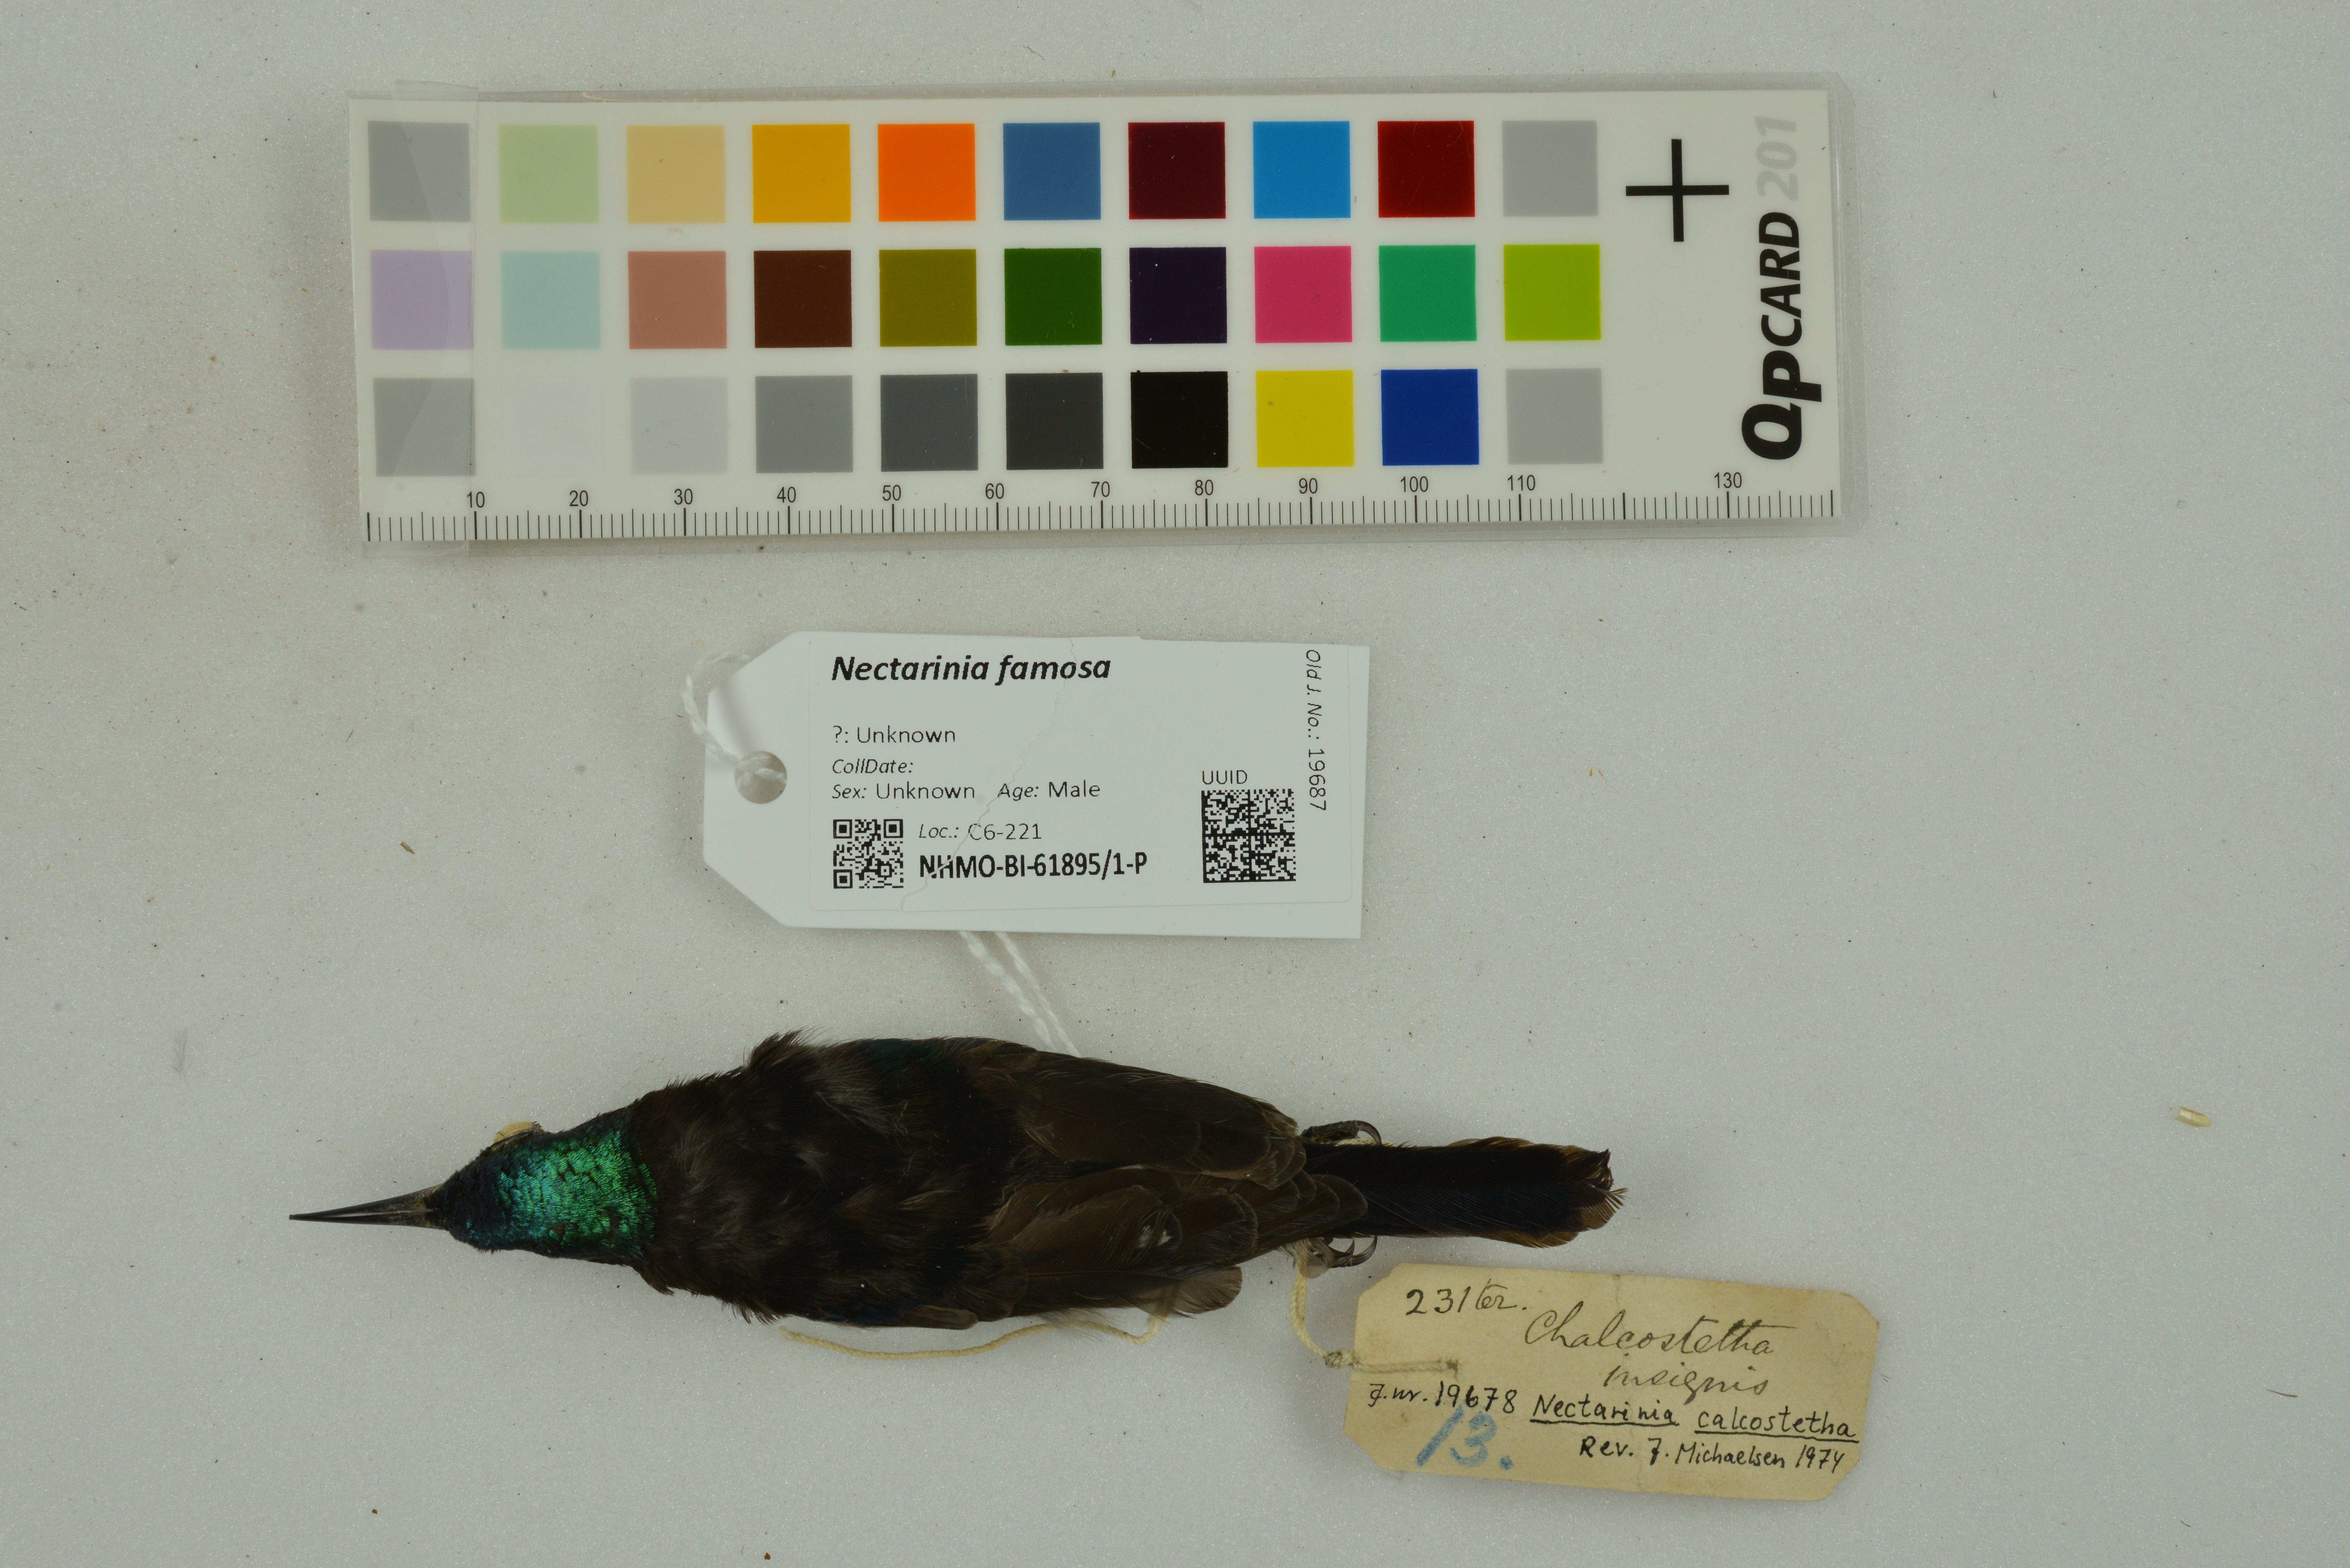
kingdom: Animalia
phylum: Chordata
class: Aves
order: Passeriformes
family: Nectariniidae
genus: Nectarinia
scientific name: Nectarinia famosa
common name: Malachite sunbird
